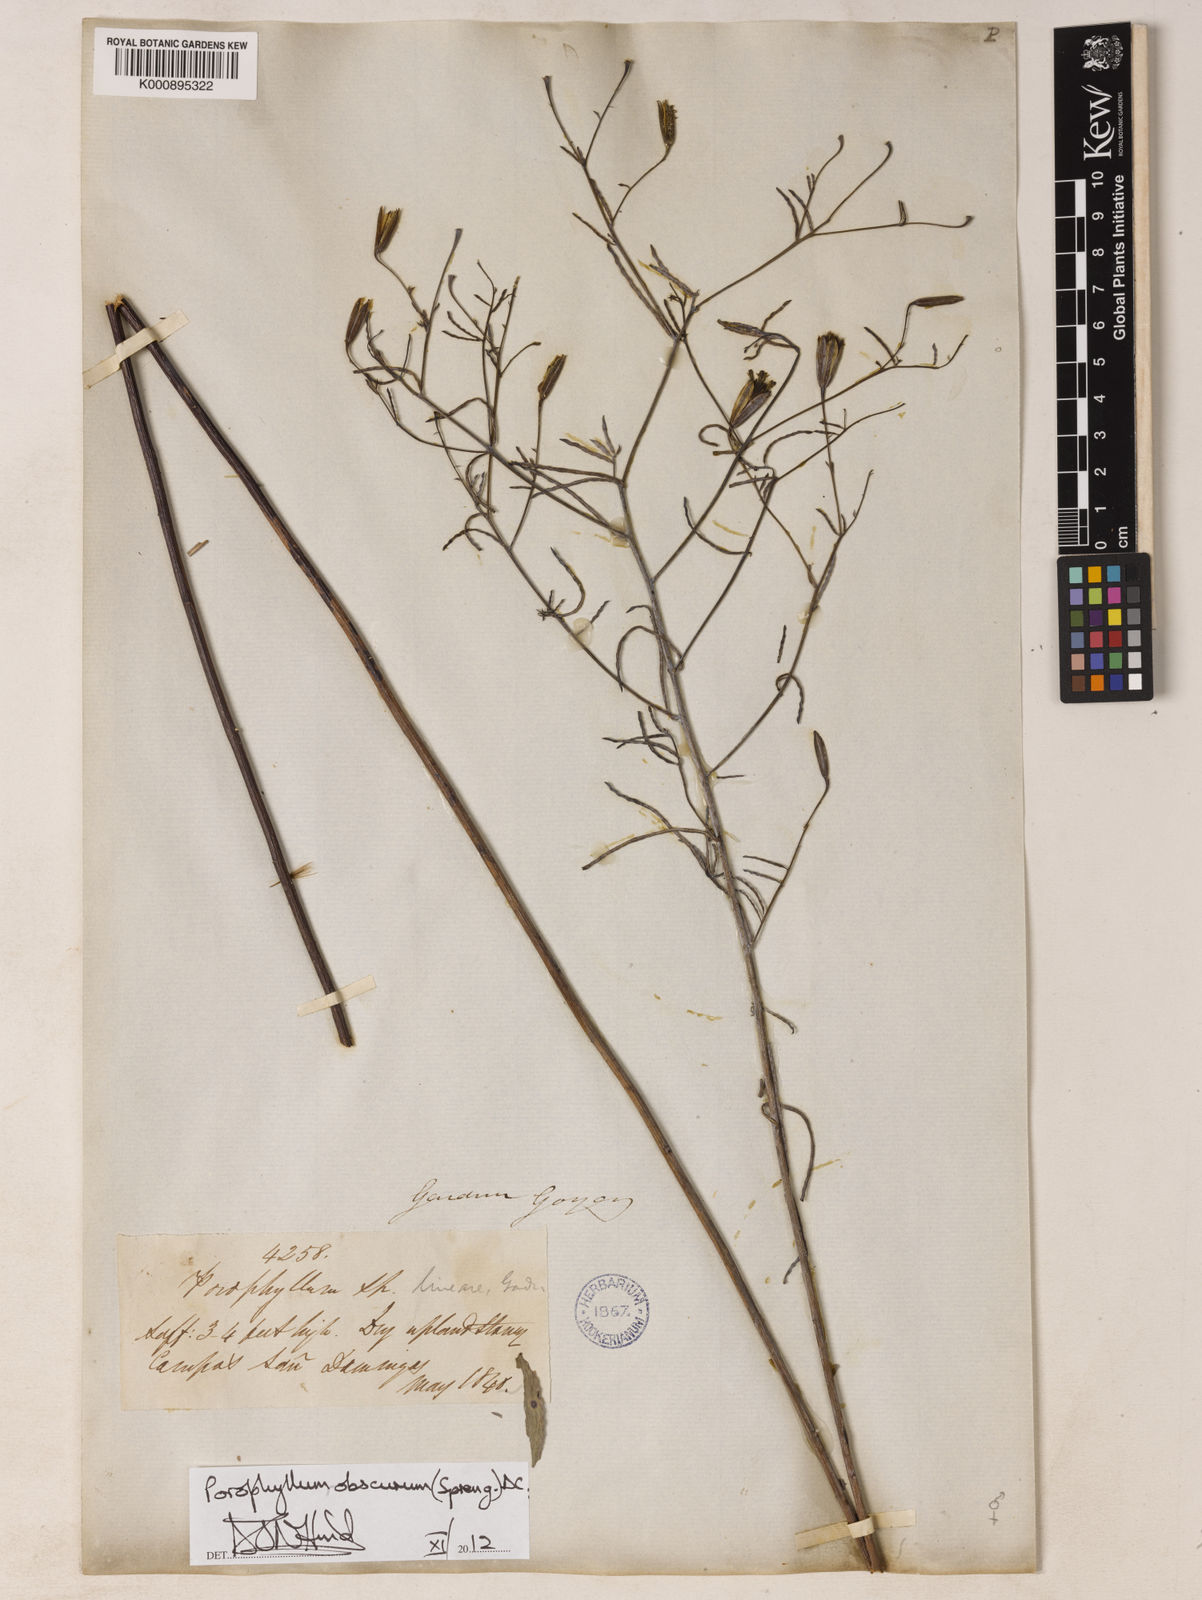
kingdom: Plantae
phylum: Tracheophyta
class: Magnoliopsida
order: Asterales
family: Asteraceae
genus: Porophyllum
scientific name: Porophyllum obscurum
